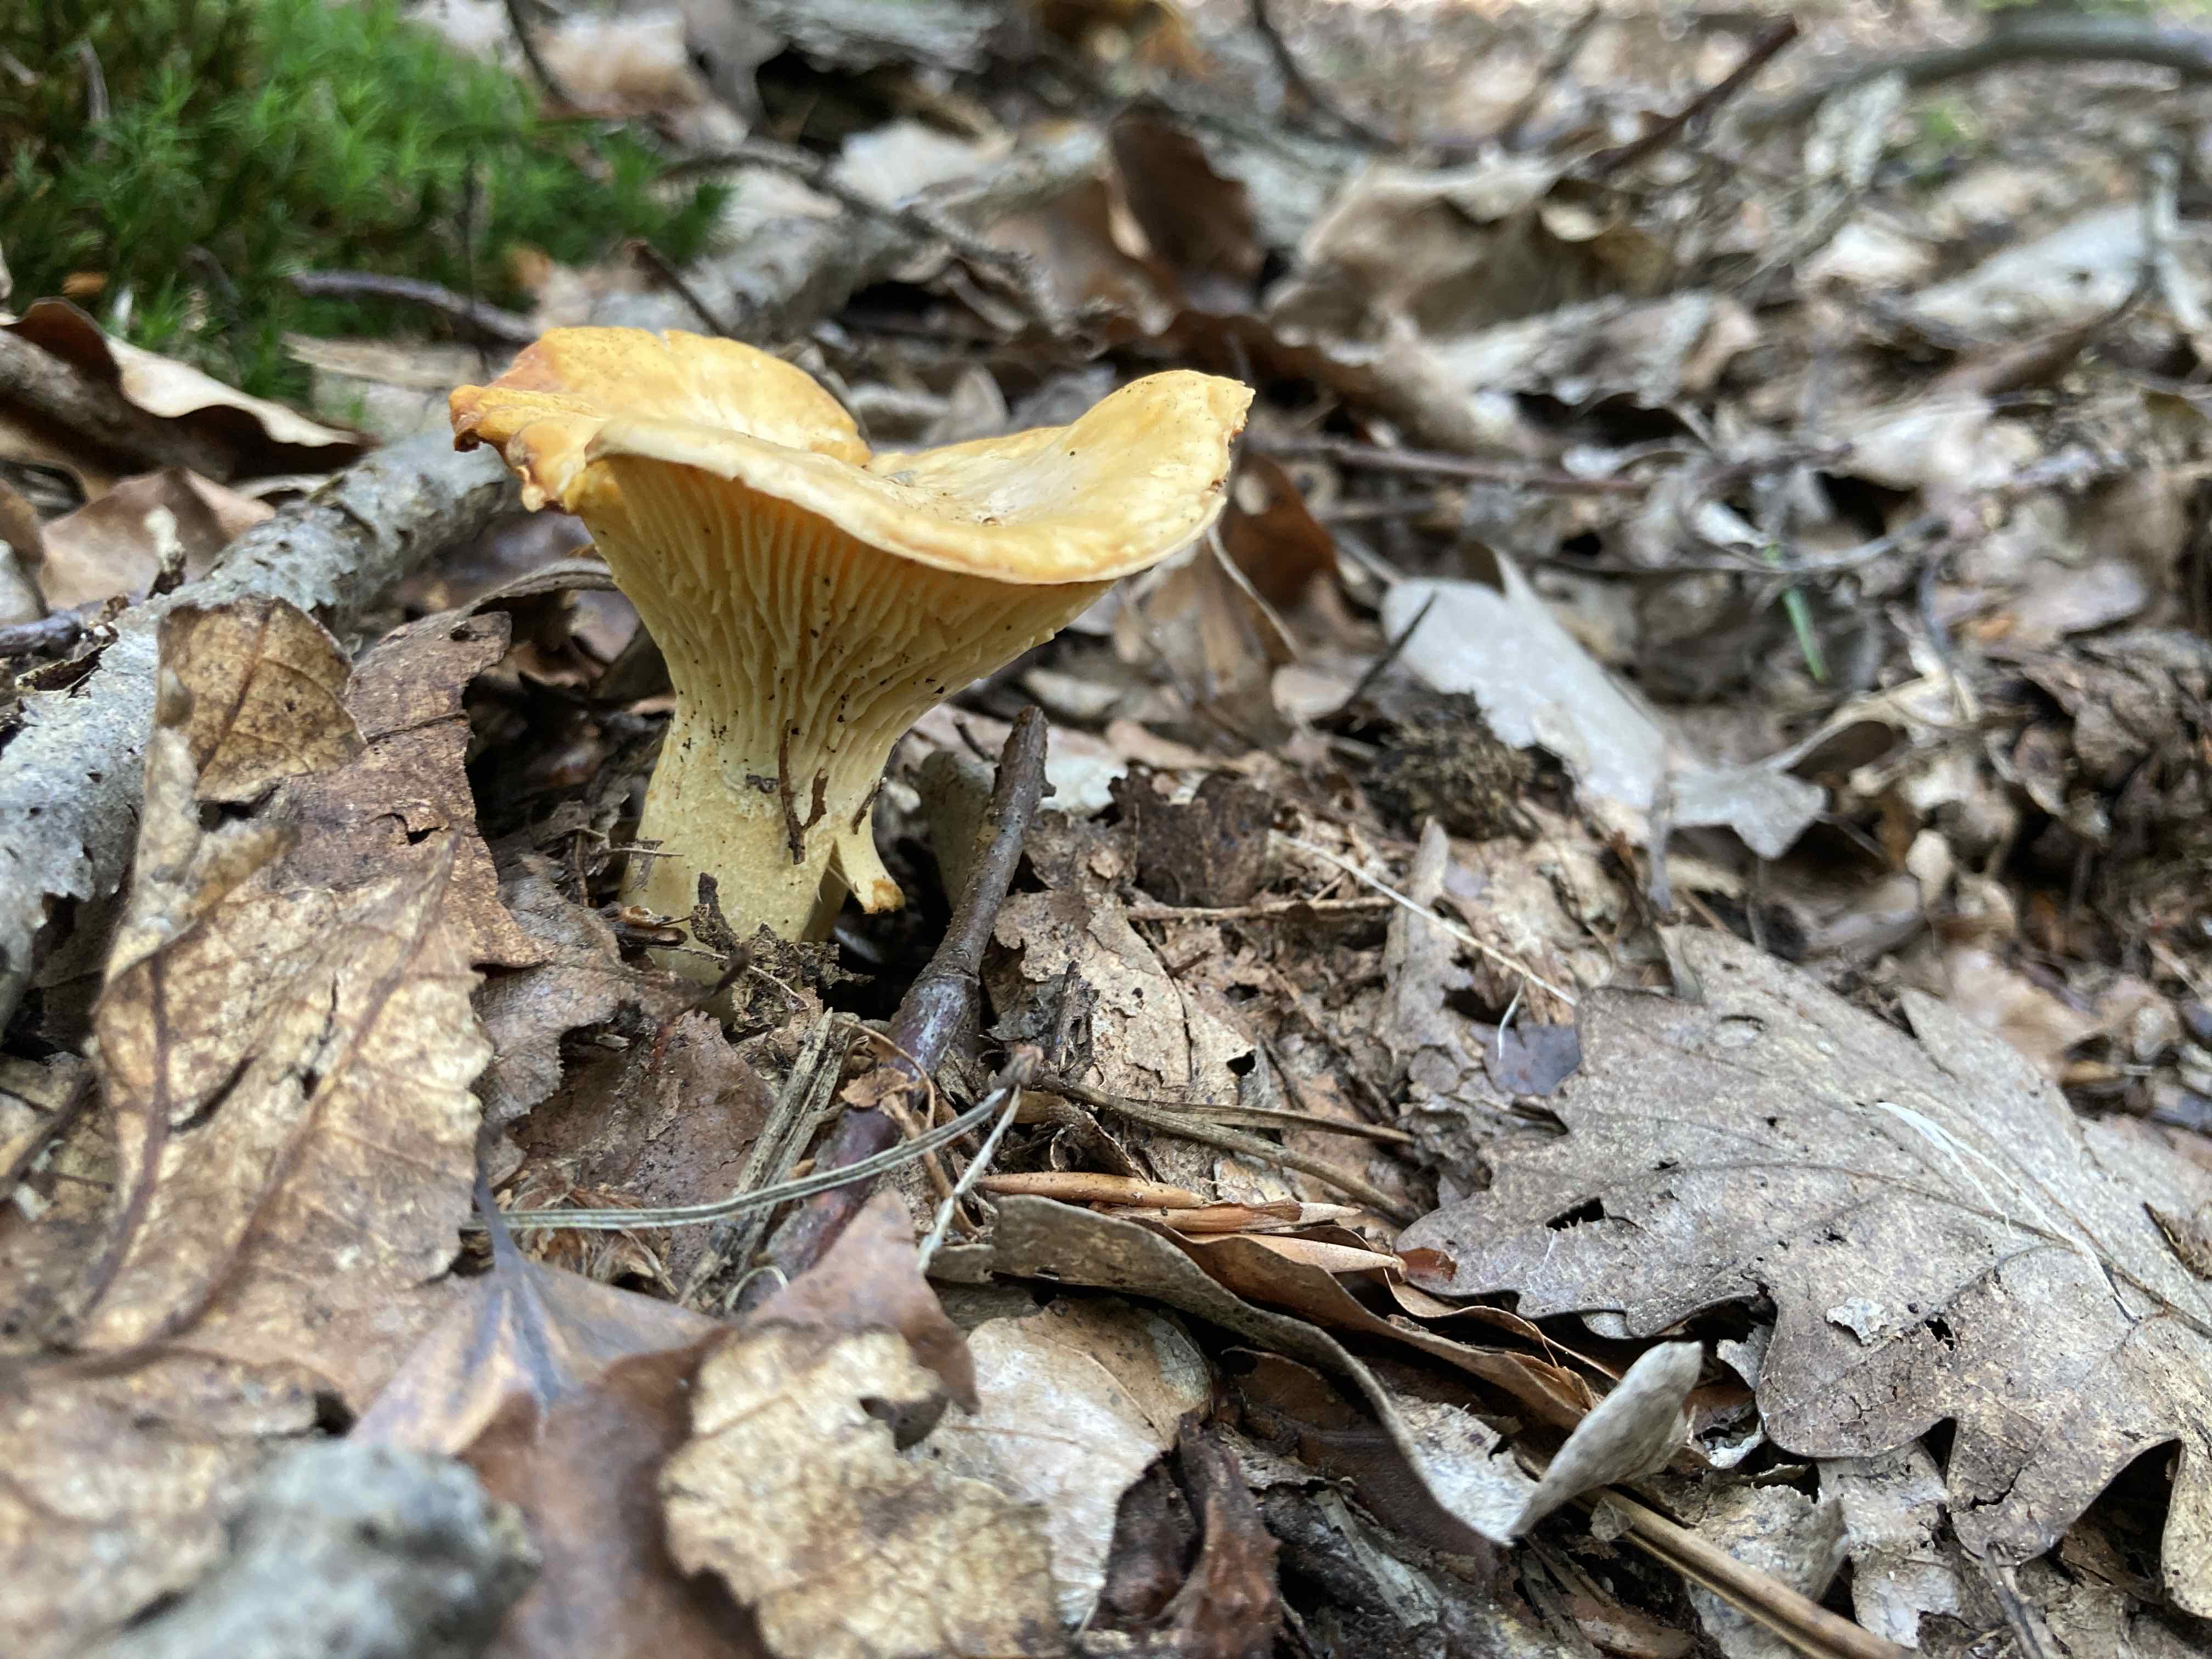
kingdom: Fungi
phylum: Basidiomycota
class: Agaricomycetes
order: Cantharellales
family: Hydnaceae
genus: Cantharellus
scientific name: Cantharellus
